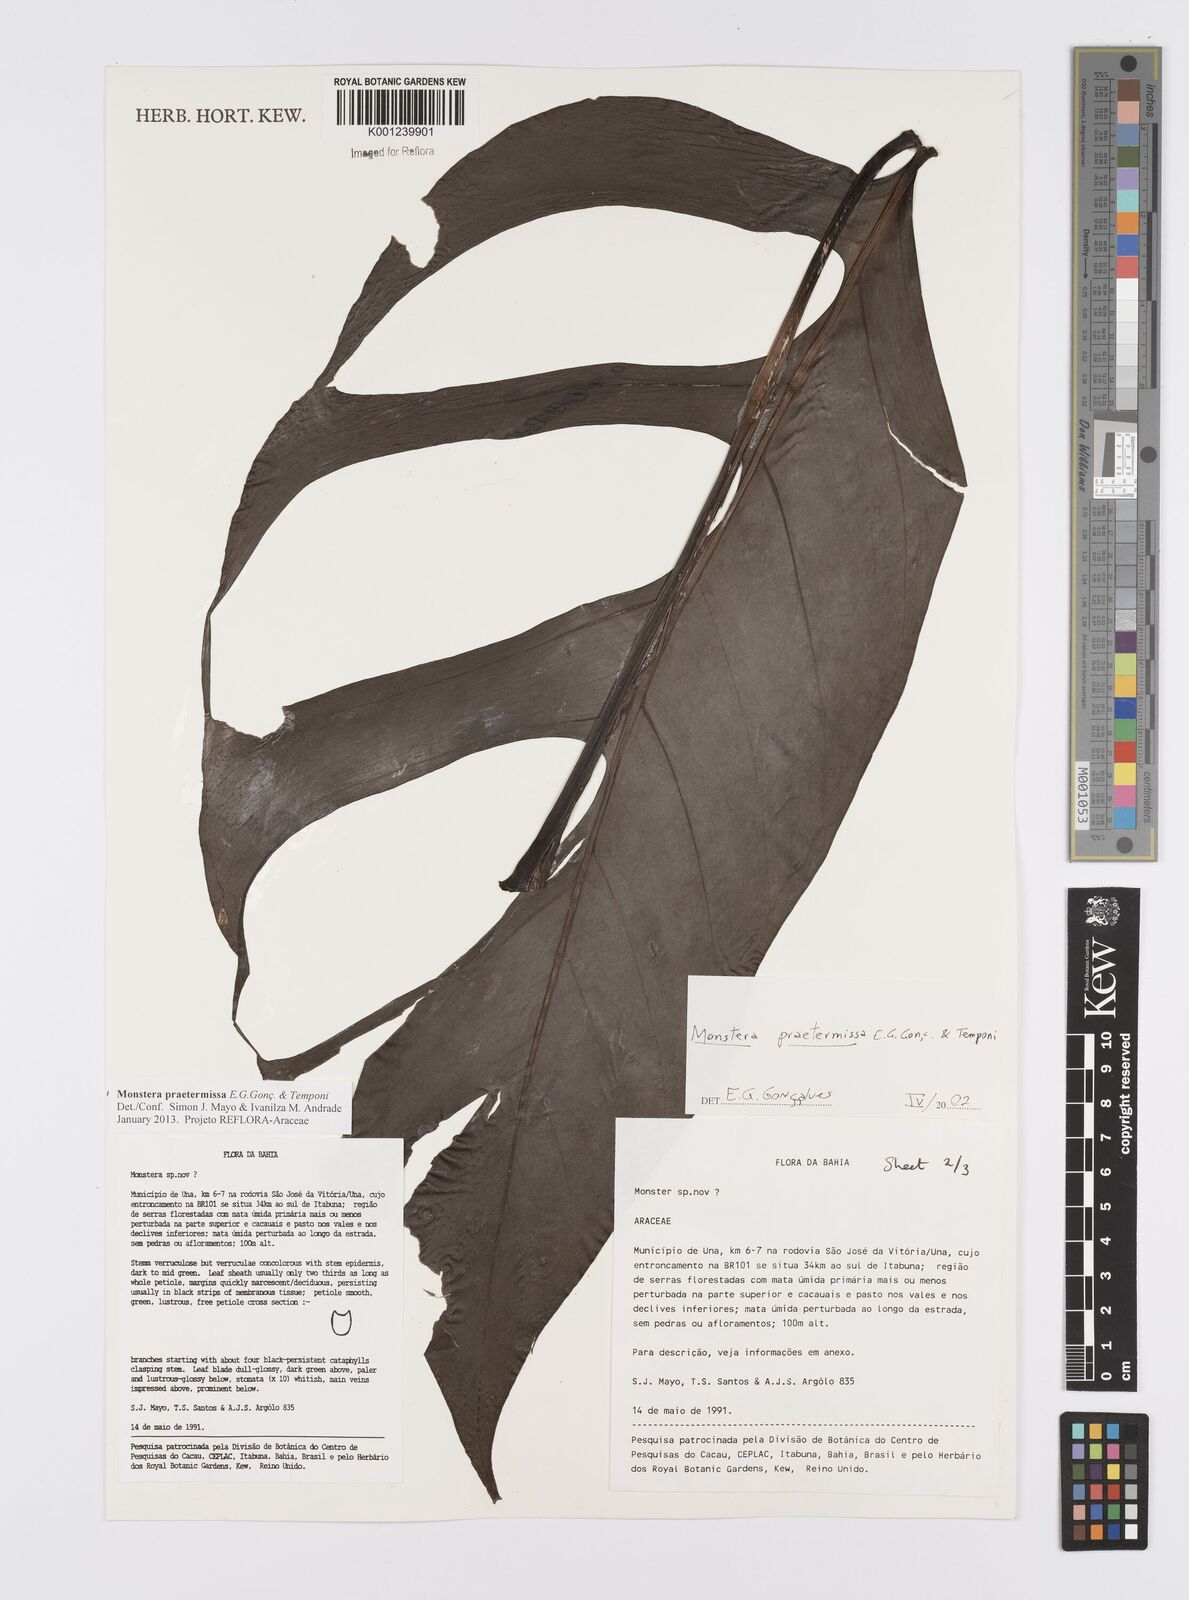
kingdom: Plantae
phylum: Tracheophyta
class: Liliopsida
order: Alismatales
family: Araceae
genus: Monstera
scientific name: Monstera praetermissa
